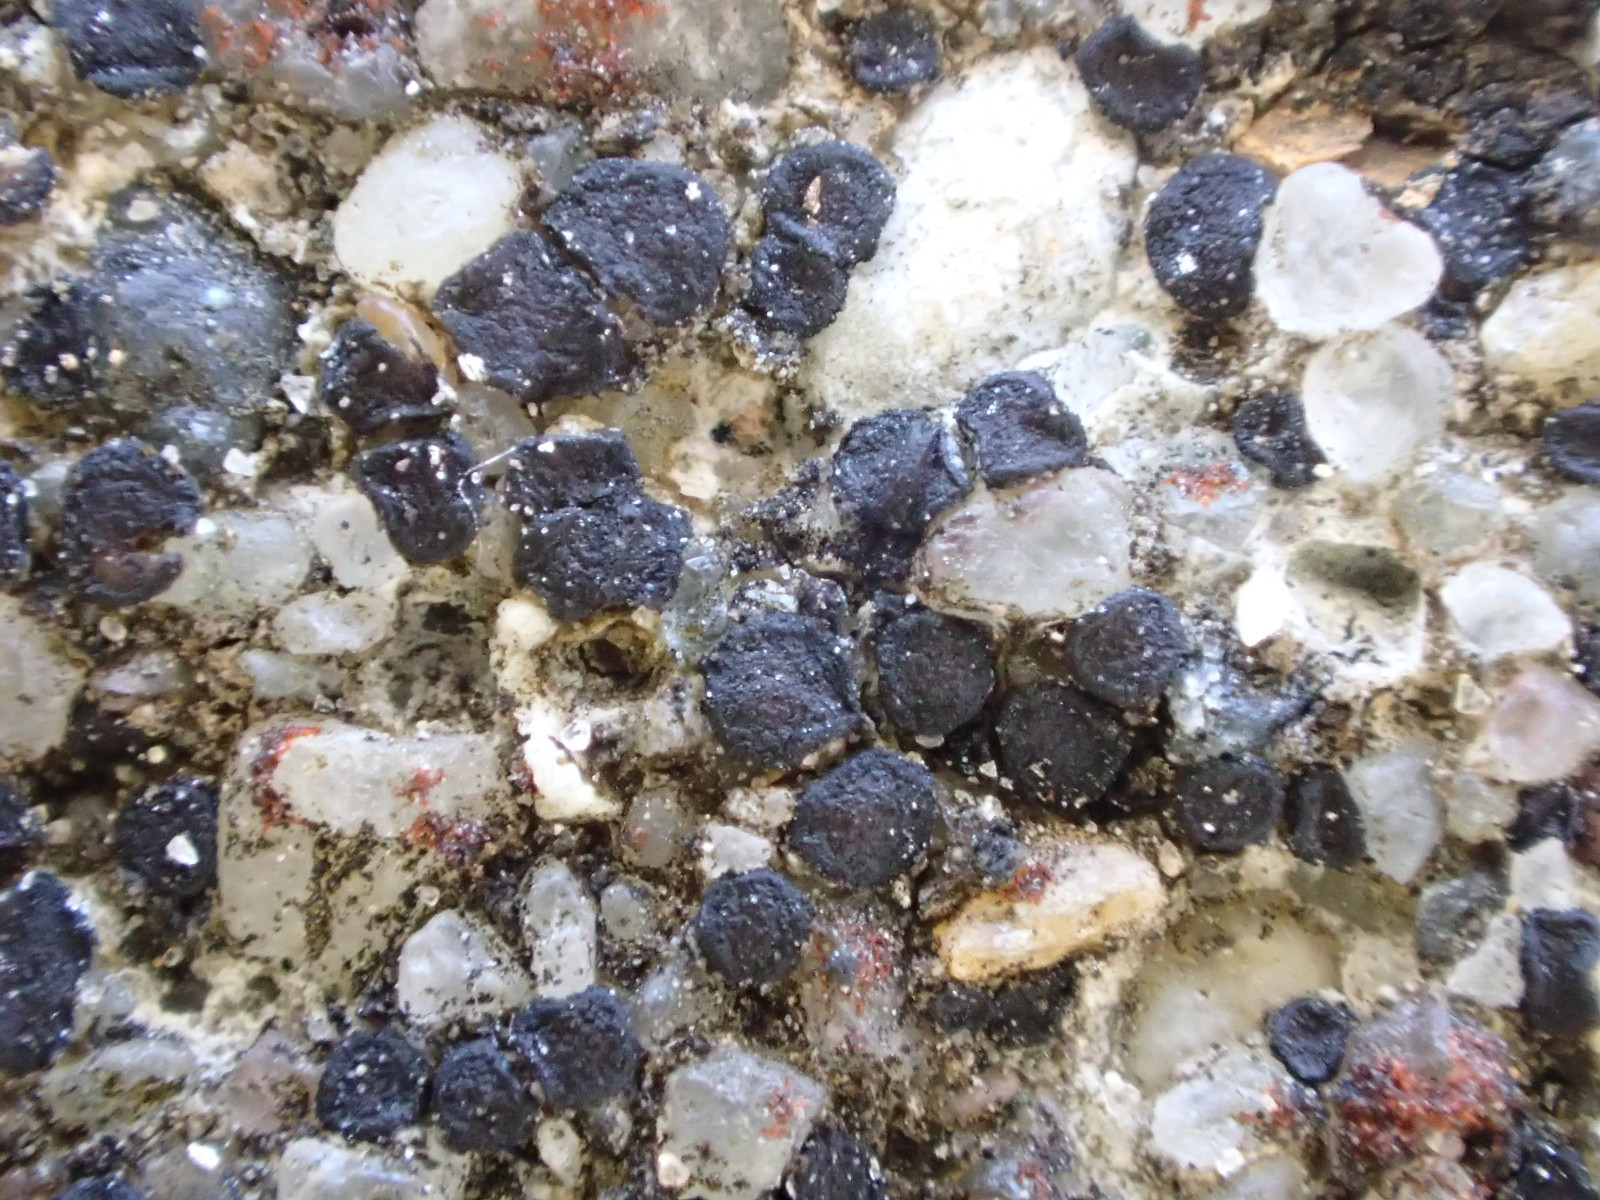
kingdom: Fungi
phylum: Ascomycota
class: Lecanoromycetes
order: Acarosporales
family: Acarosporaceae
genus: Sarcogyne
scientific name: Sarcogyne regularis
